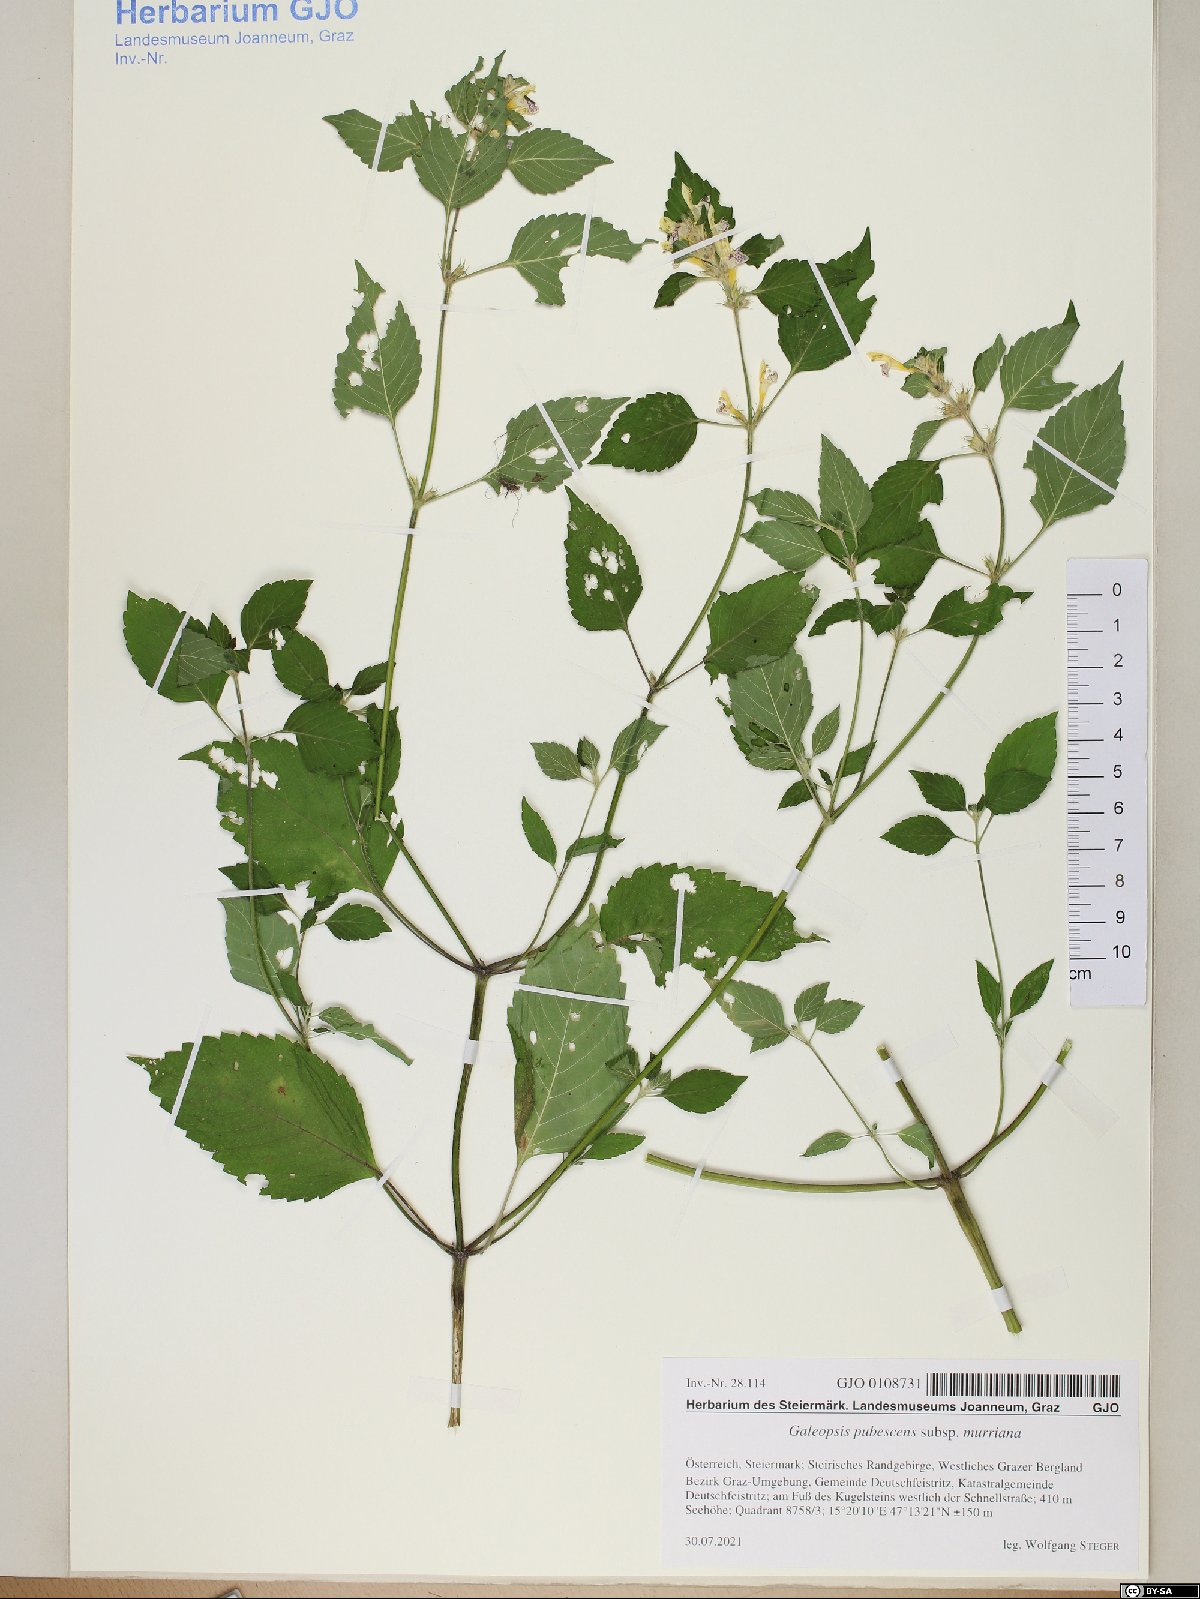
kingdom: Plantae
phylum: Tracheophyta
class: Magnoliopsida
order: Lamiales
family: Lamiaceae
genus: Galeopsis
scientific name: Galeopsis pubescens
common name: Downy hemp-nettle
